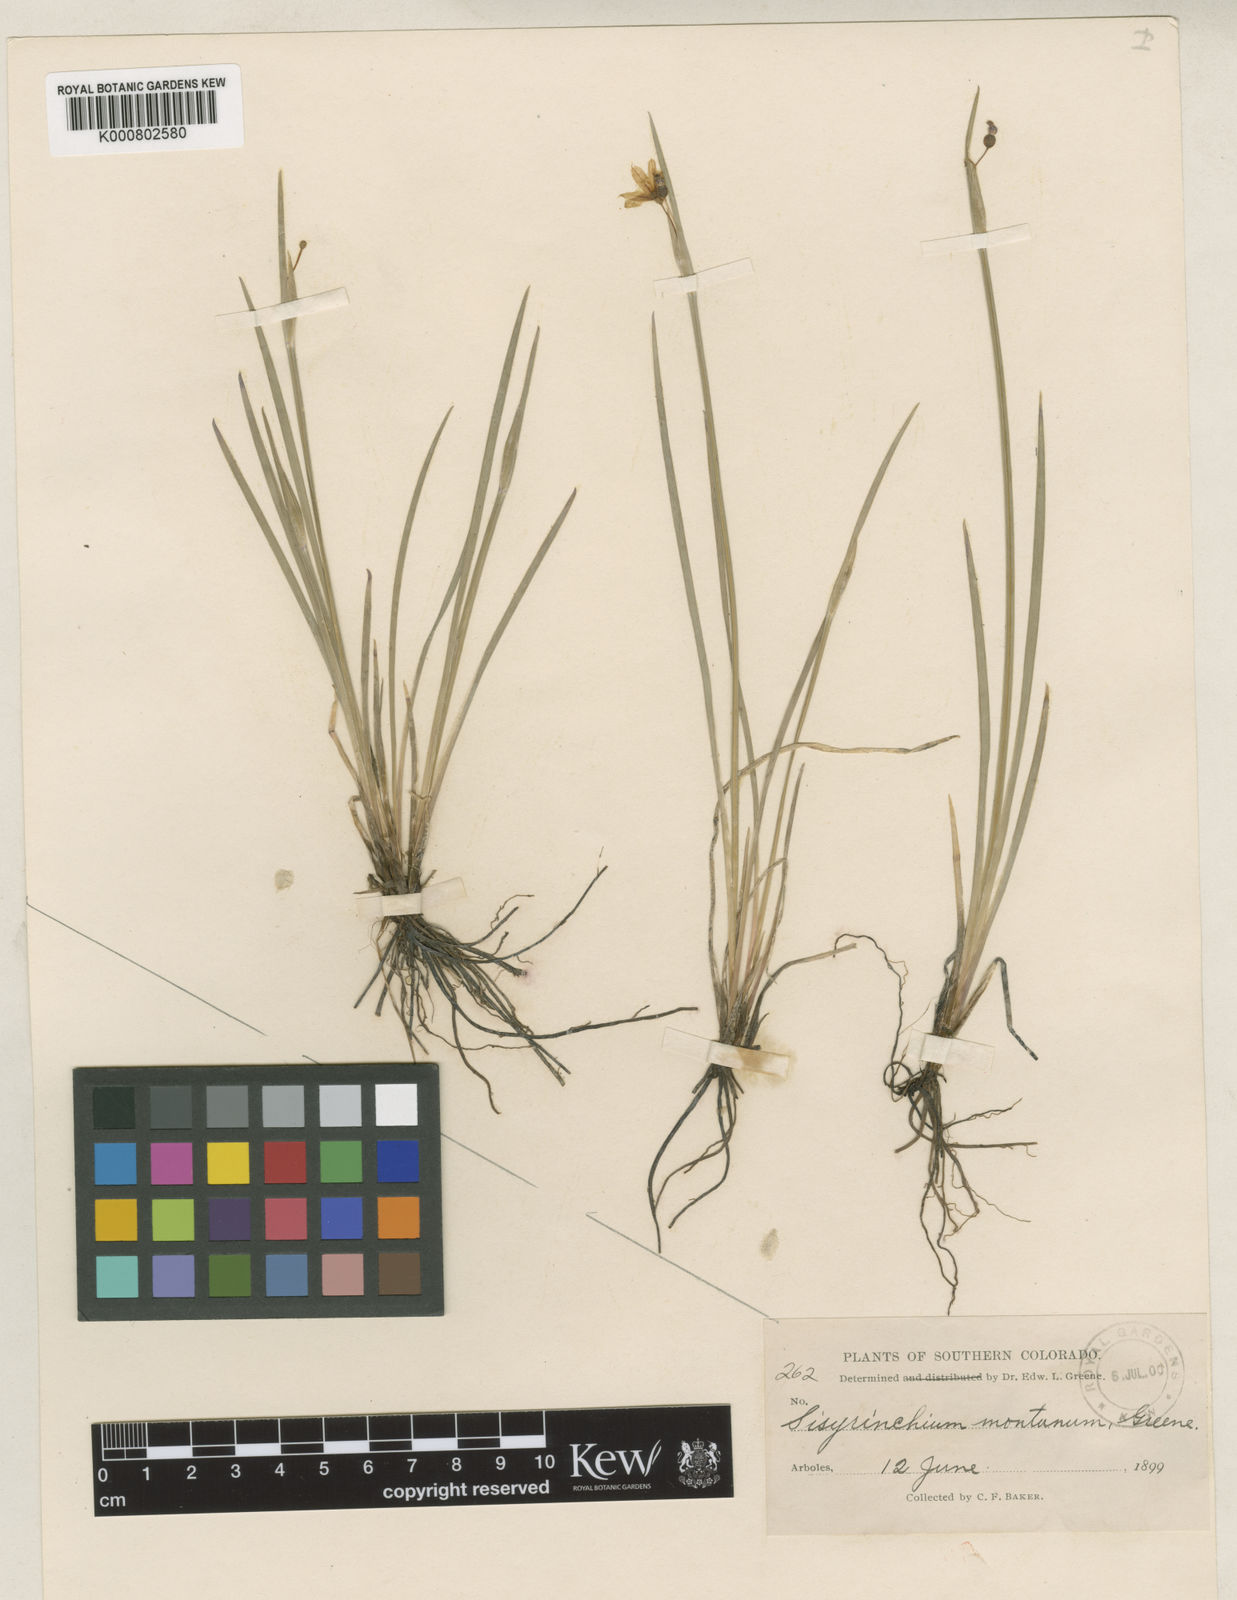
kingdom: Plantae
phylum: Tracheophyta
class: Liliopsida
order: Asparagales
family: Iridaceae
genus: Sisyrinchium
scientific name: Sisyrinchium montanum
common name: American blue-eyed-grass
